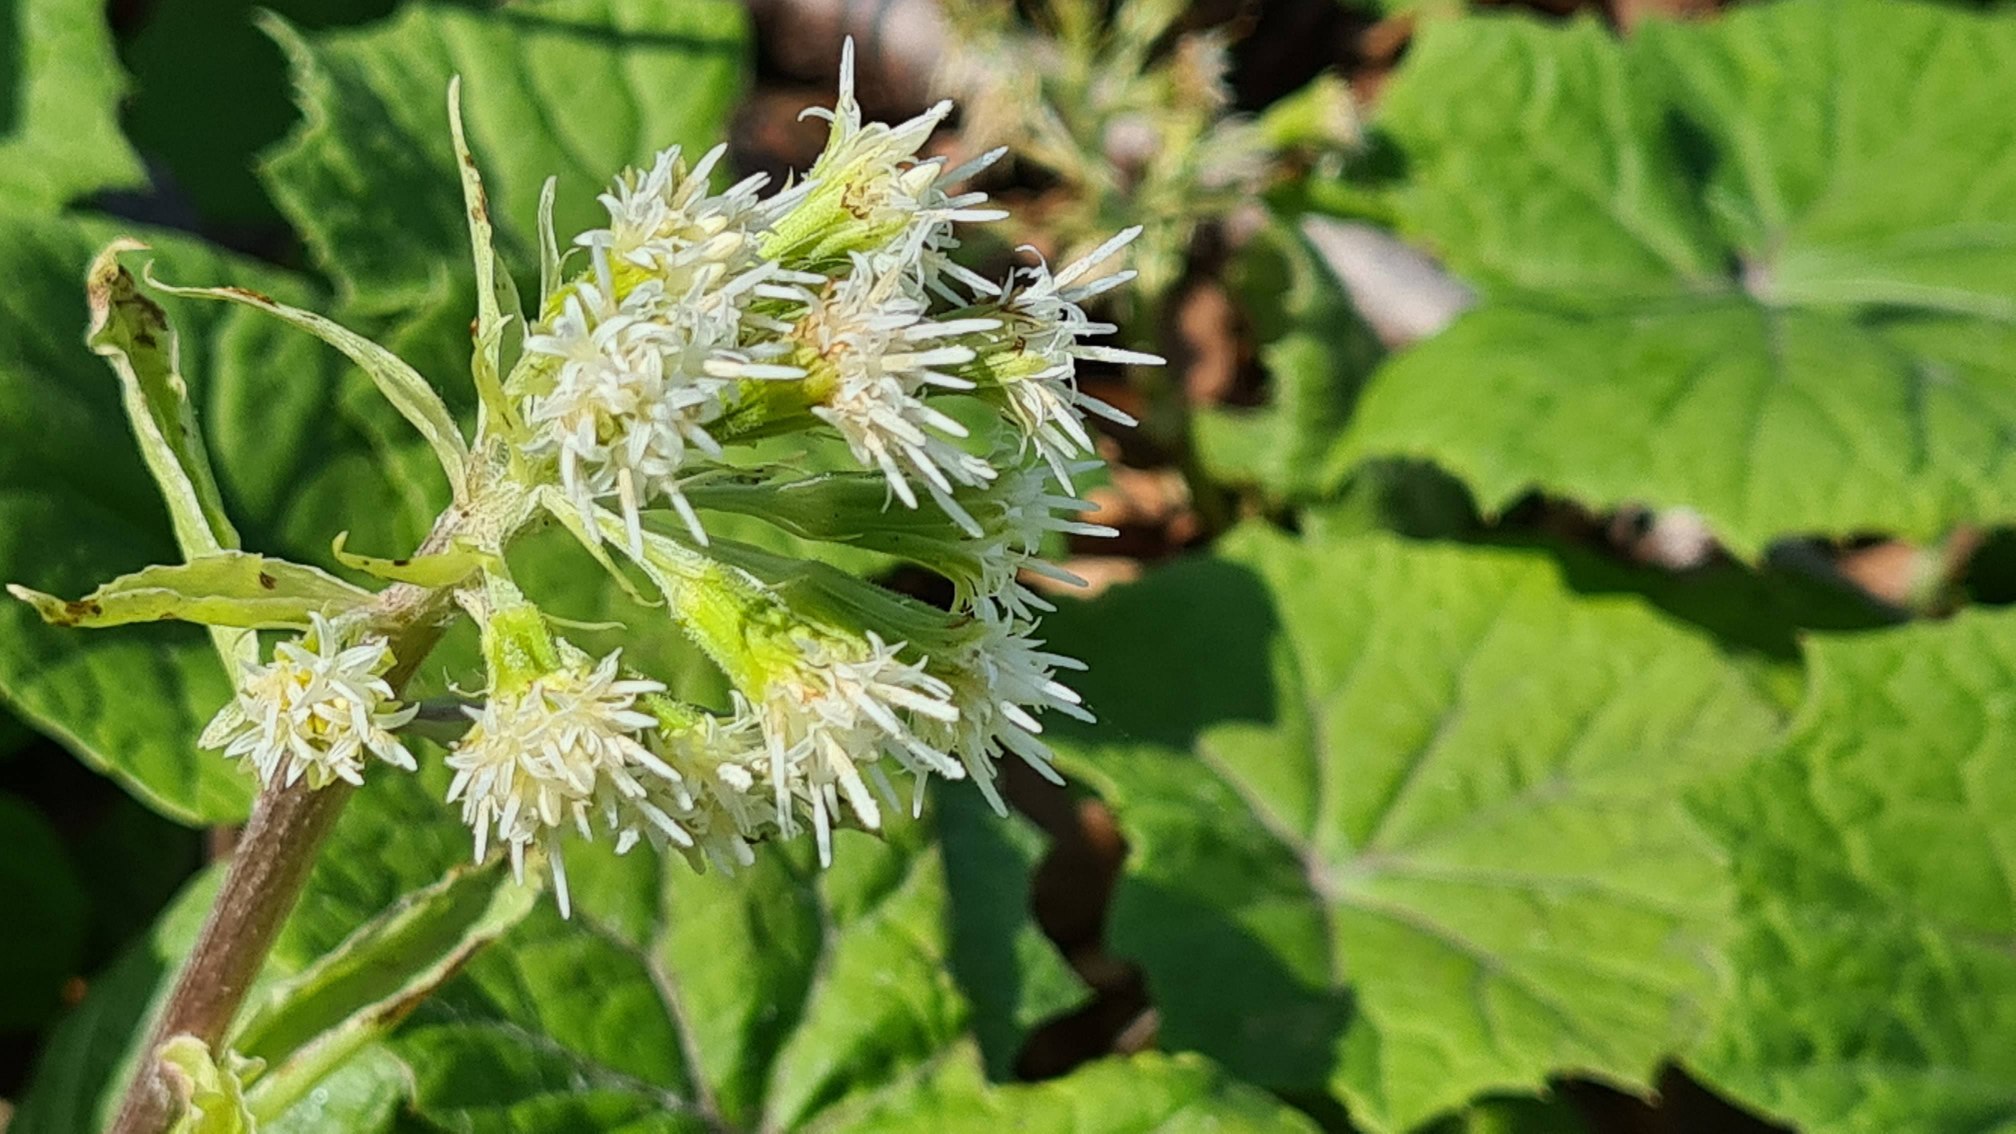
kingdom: Plantae
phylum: Tracheophyta
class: Magnoliopsida
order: Asterales
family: Asteraceae
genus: Petasites
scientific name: Petasites albus
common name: Hvid hestehov
